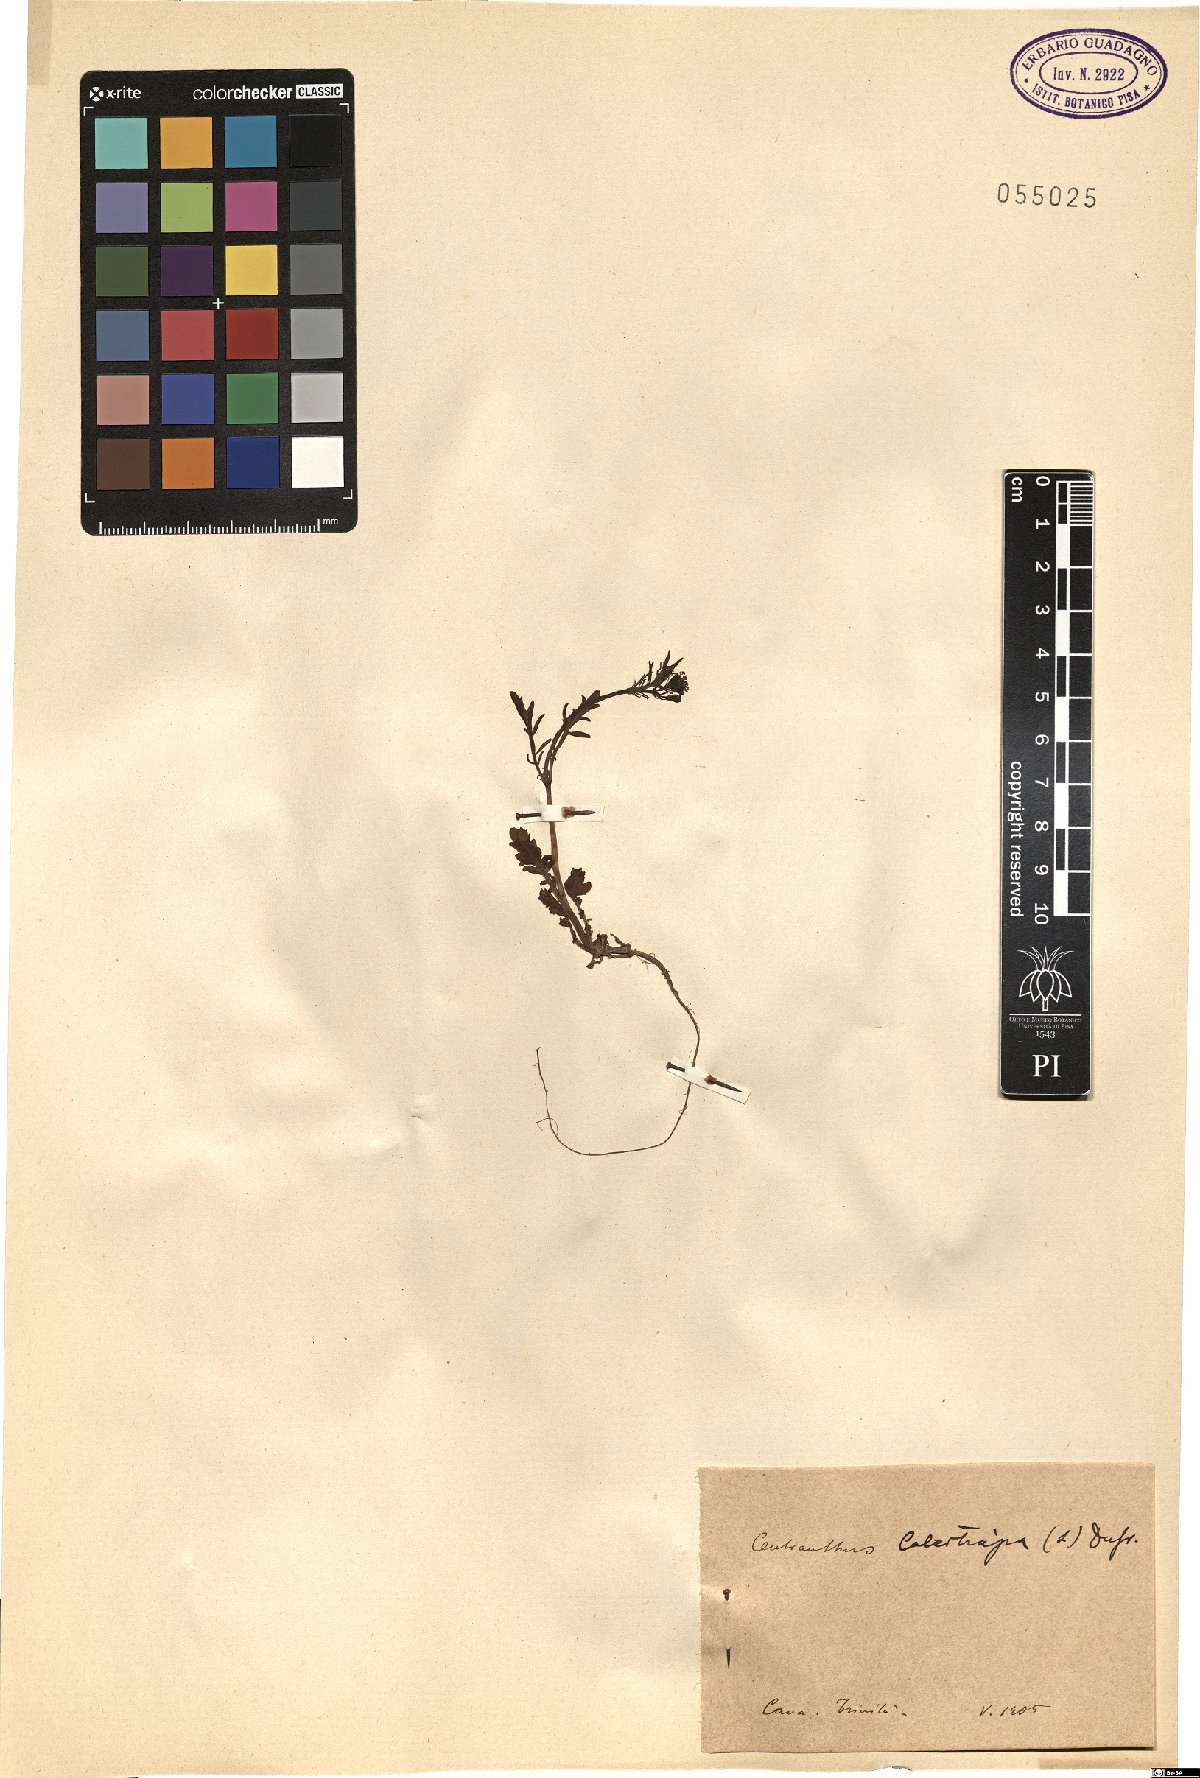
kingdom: Plantae
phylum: Tracheophyta
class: Magnoliopsida
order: Dipsacales
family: Caprifoliaceae
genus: Centranthus
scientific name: Centranthus calcitrapae
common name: Annual valerian
